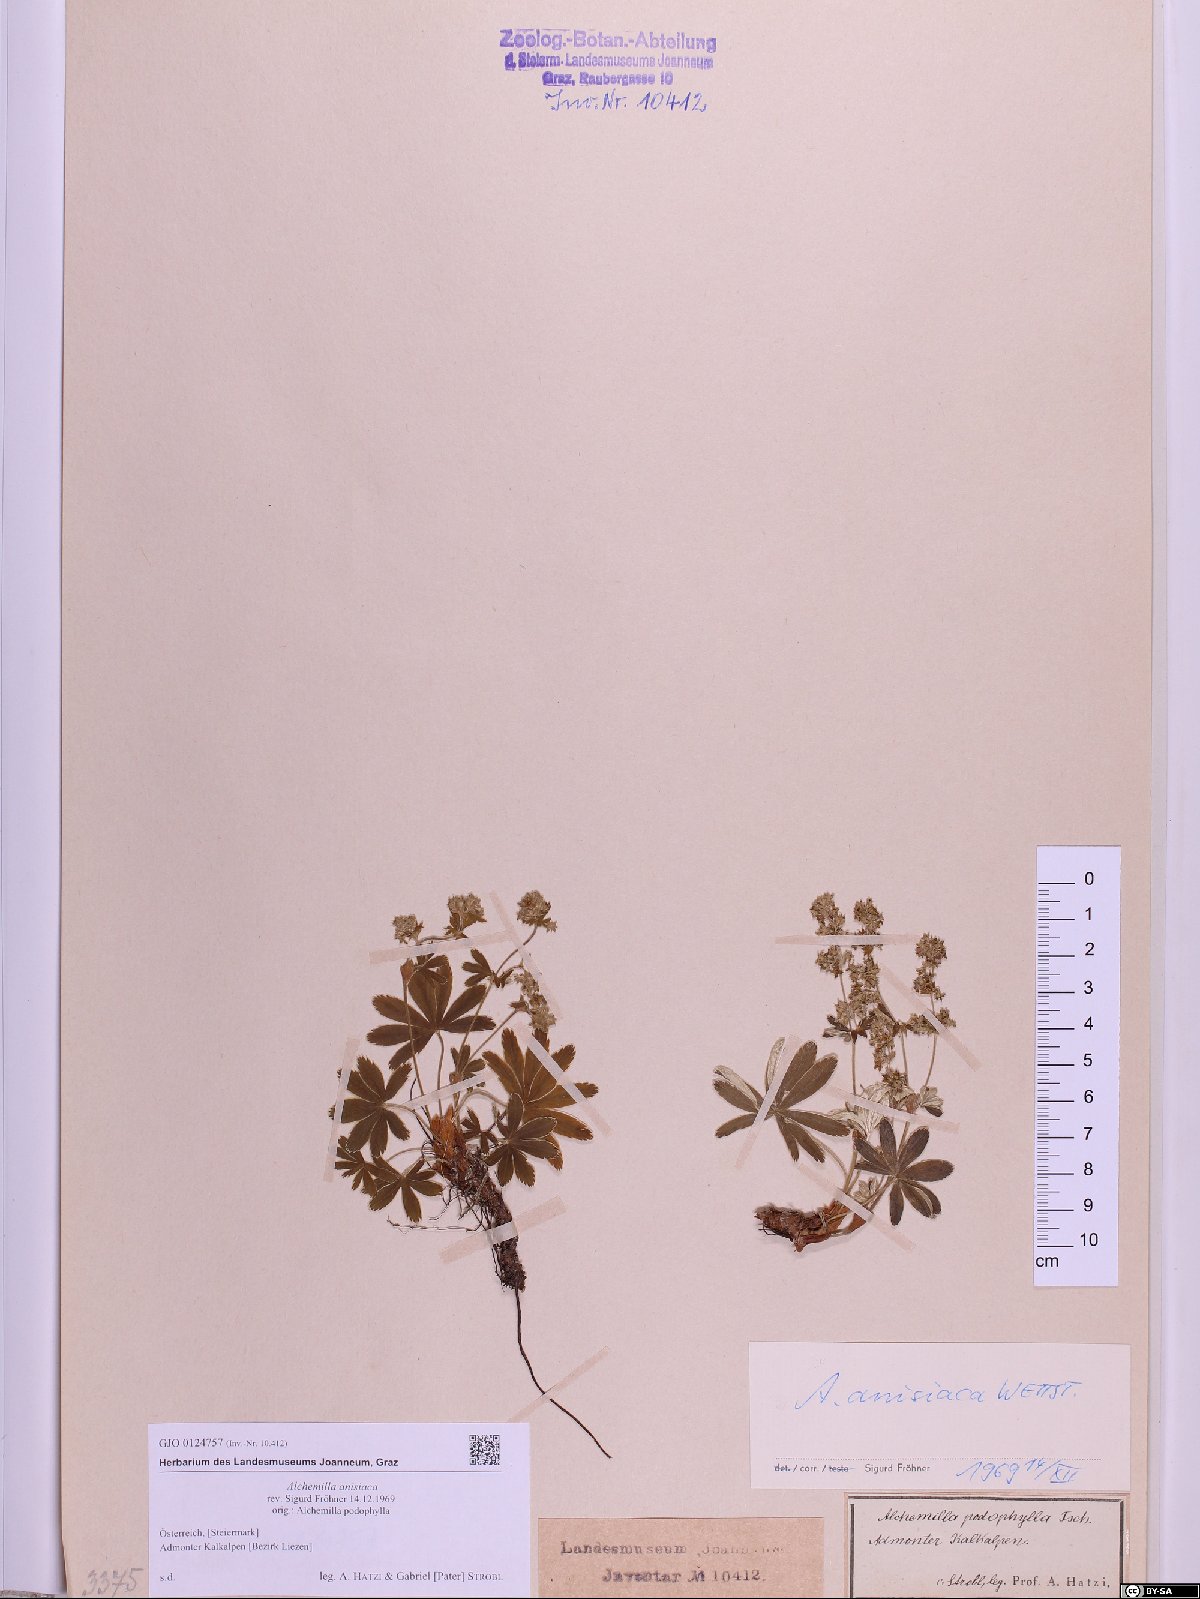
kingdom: Plantae
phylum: Tracheophyta
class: Magnoliopsida
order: Rosales
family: Rosaceae
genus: Alchemilla
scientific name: Alchemilla anisiaca
